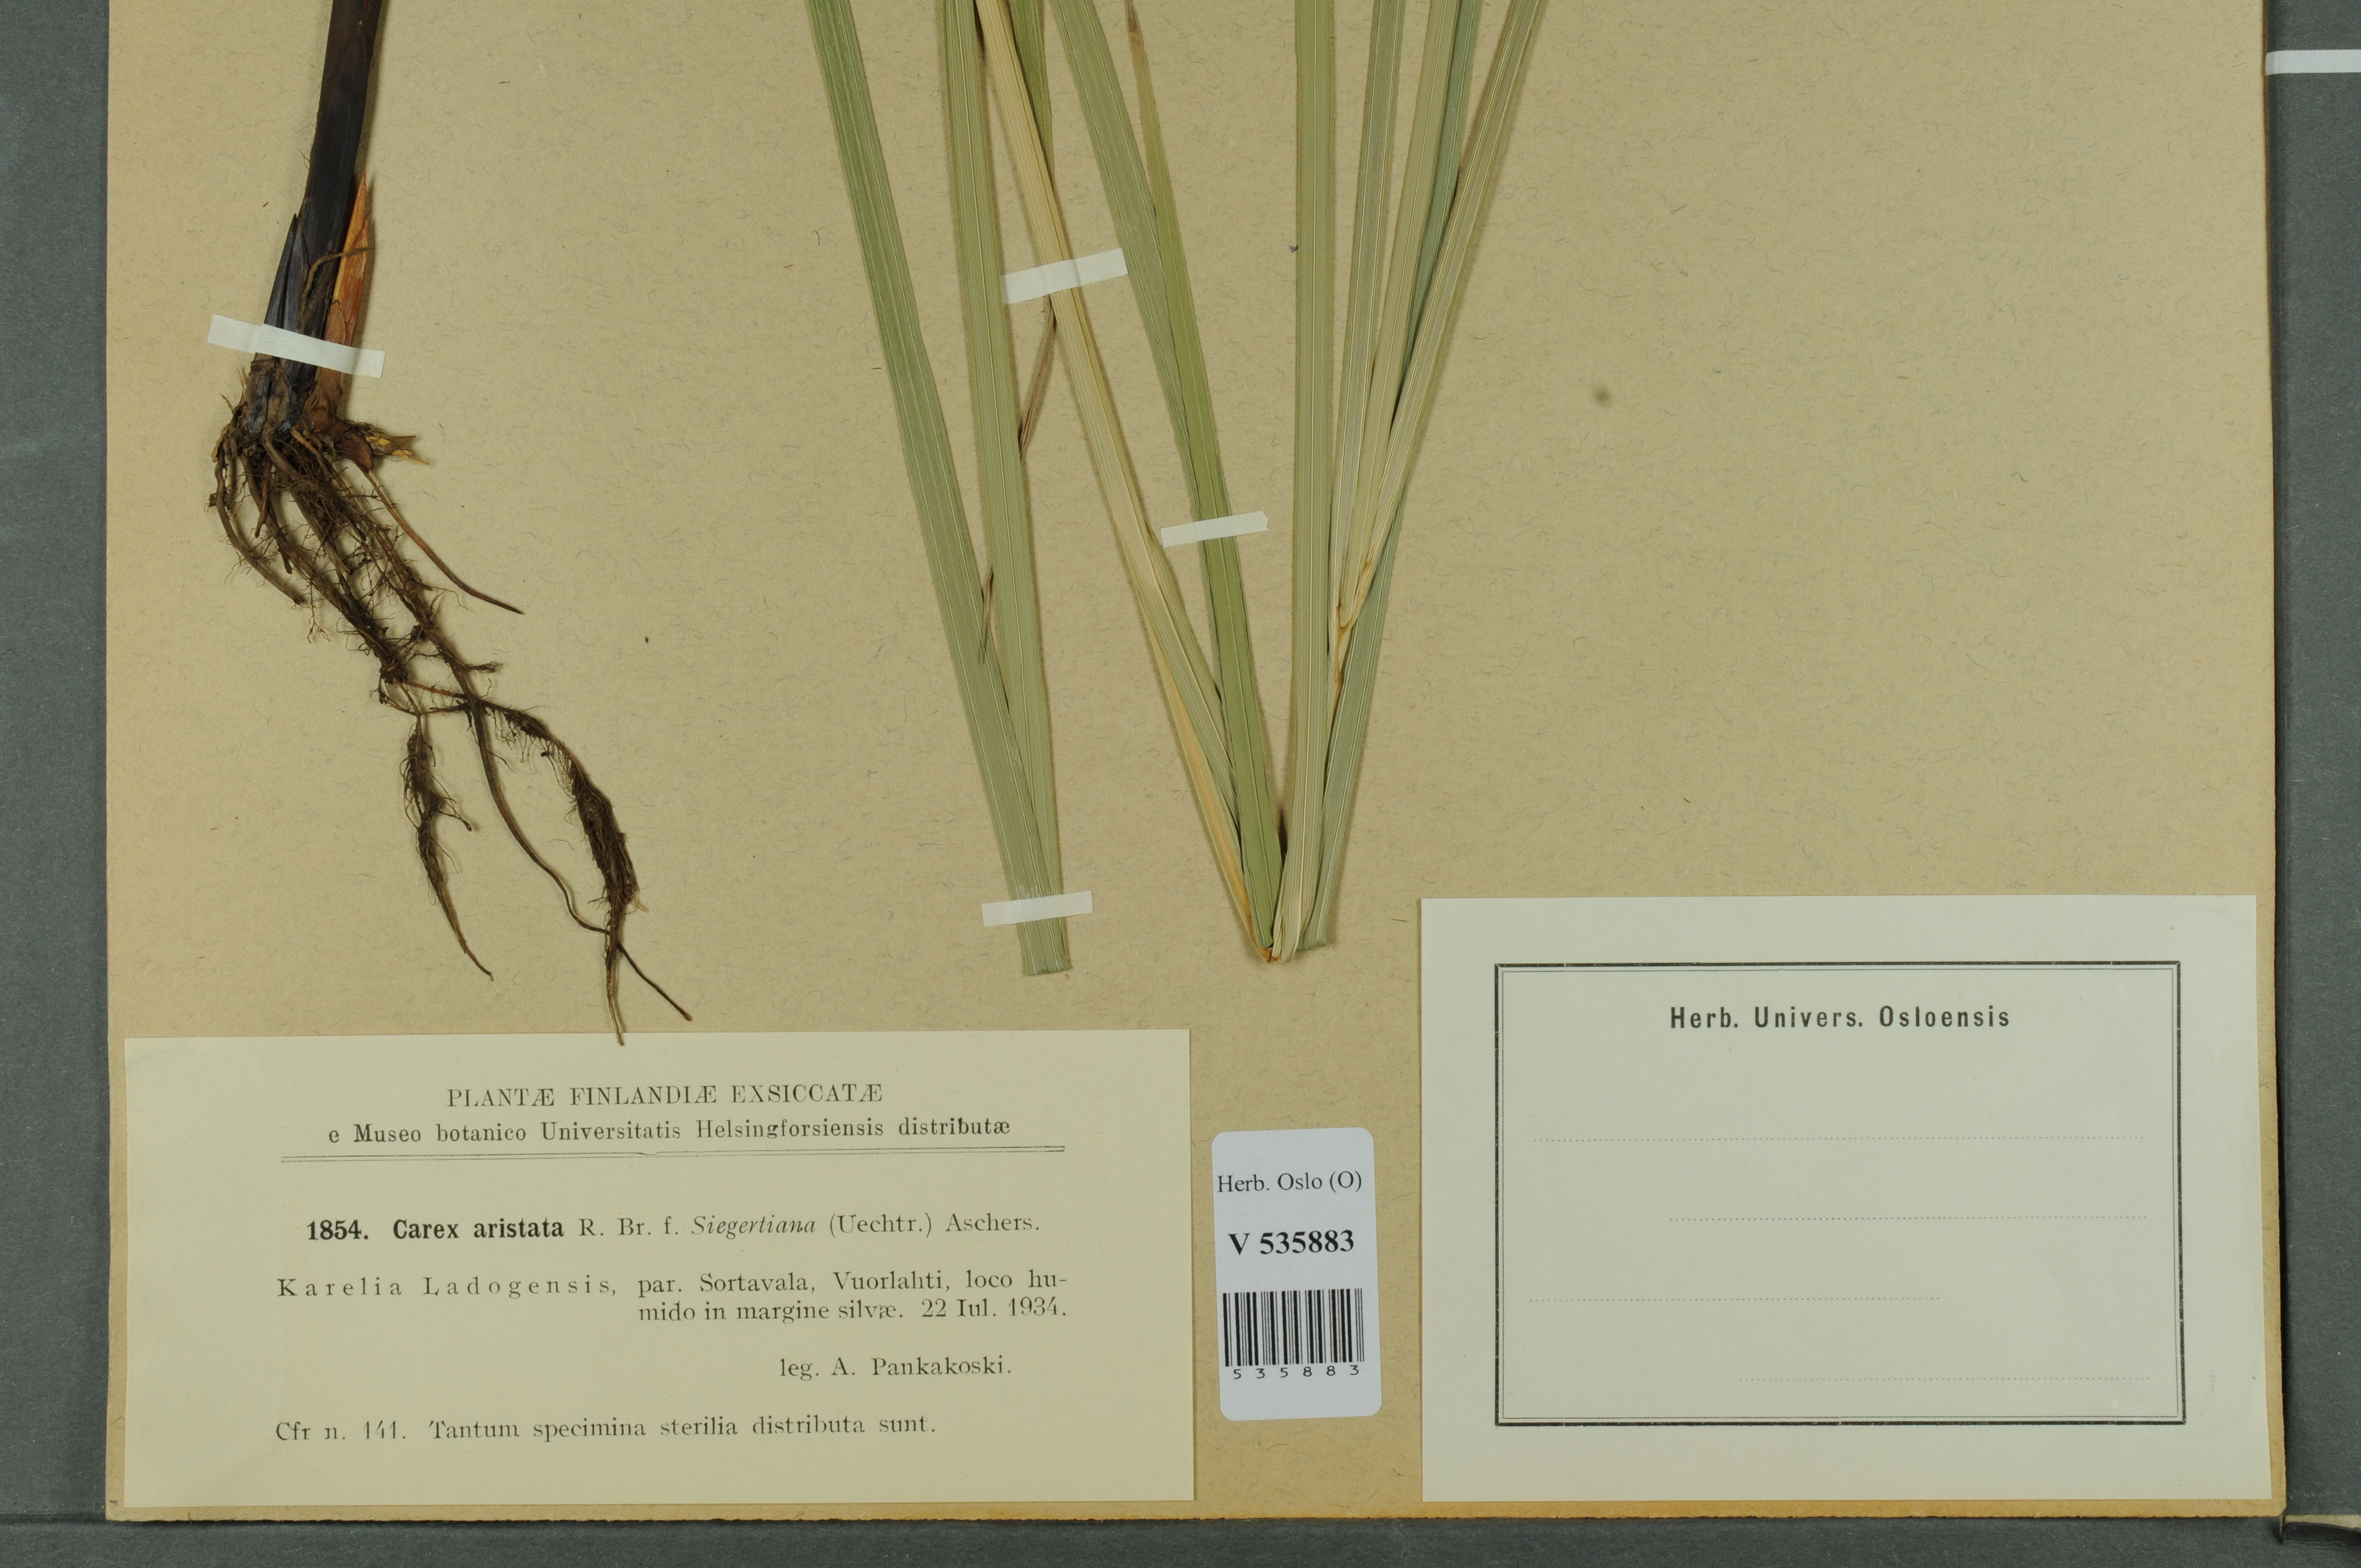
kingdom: Plantae
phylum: Tracheophyta
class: Liliopsida
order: Poales
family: Cyperaceae
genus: Carex
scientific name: Carex atherodes
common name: Wheat sedge
